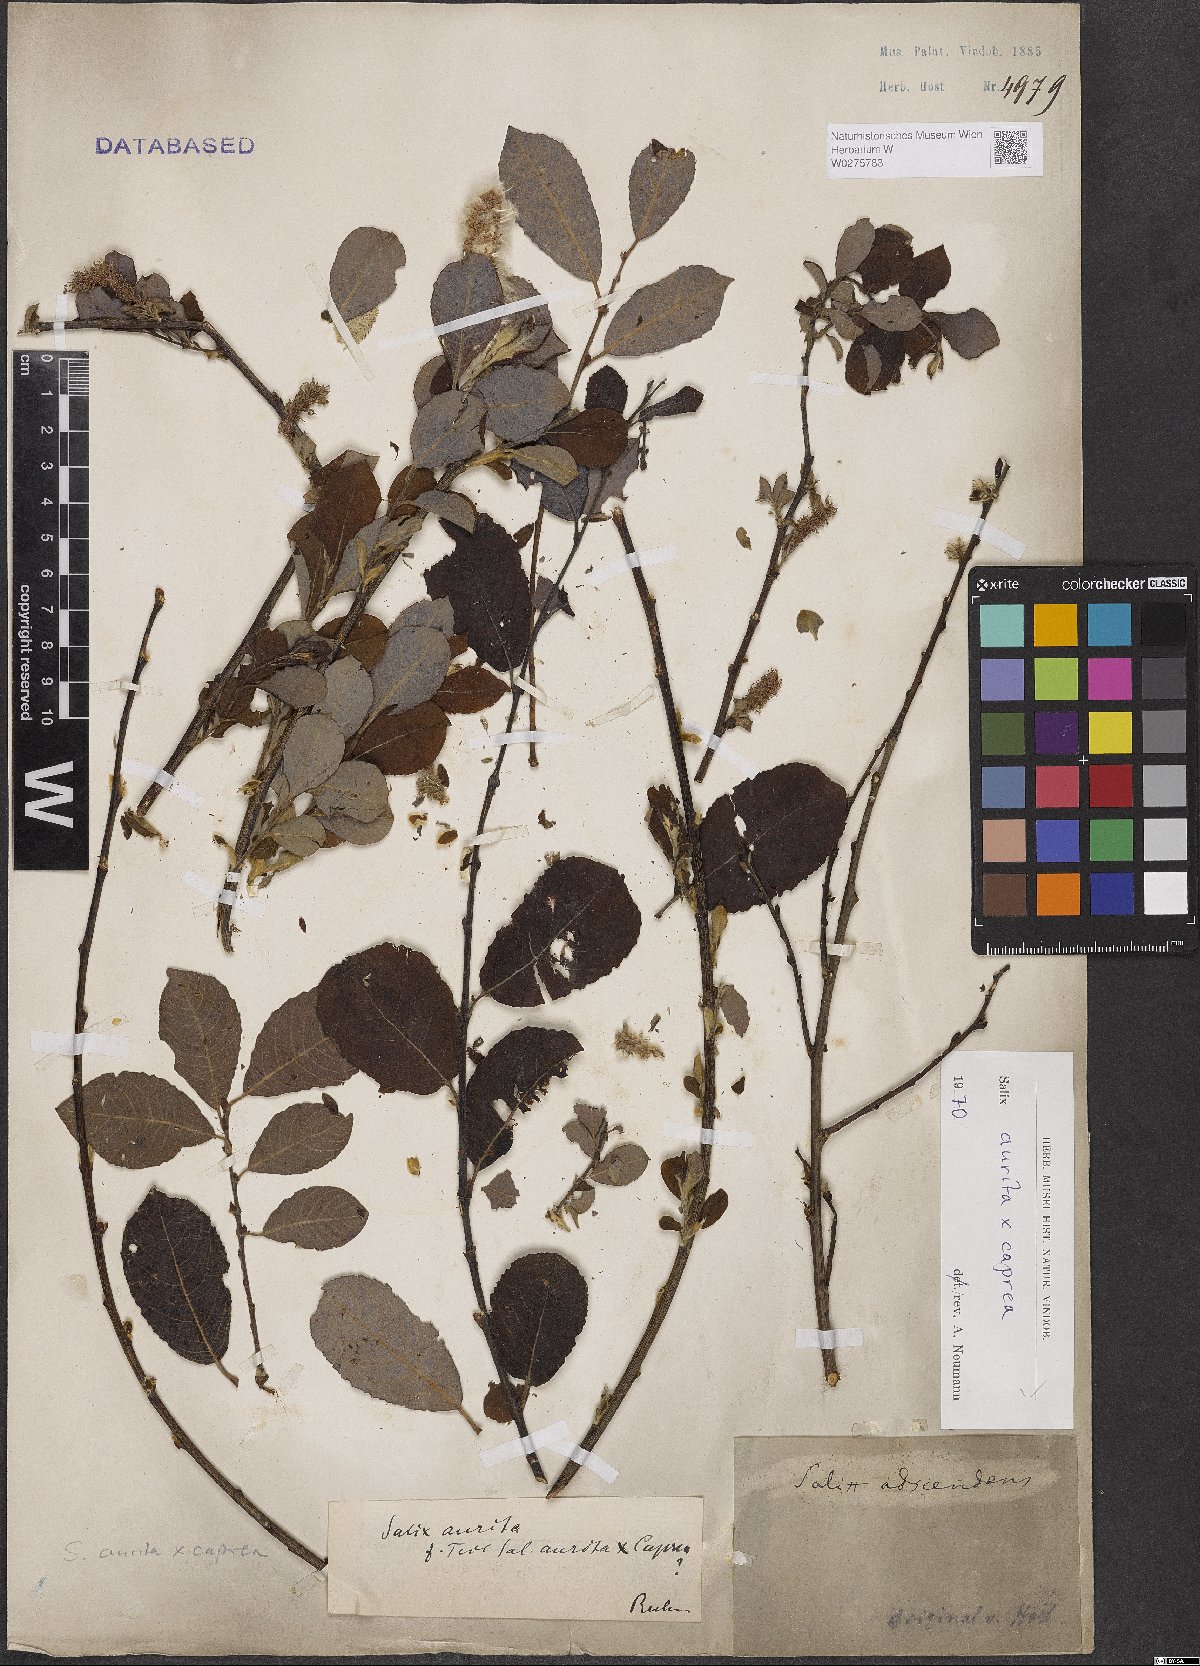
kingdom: Plantae
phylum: Tracheophyta
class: Magnoliopsida
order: Malpighiales
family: Salicaceae
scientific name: Salicaceae
